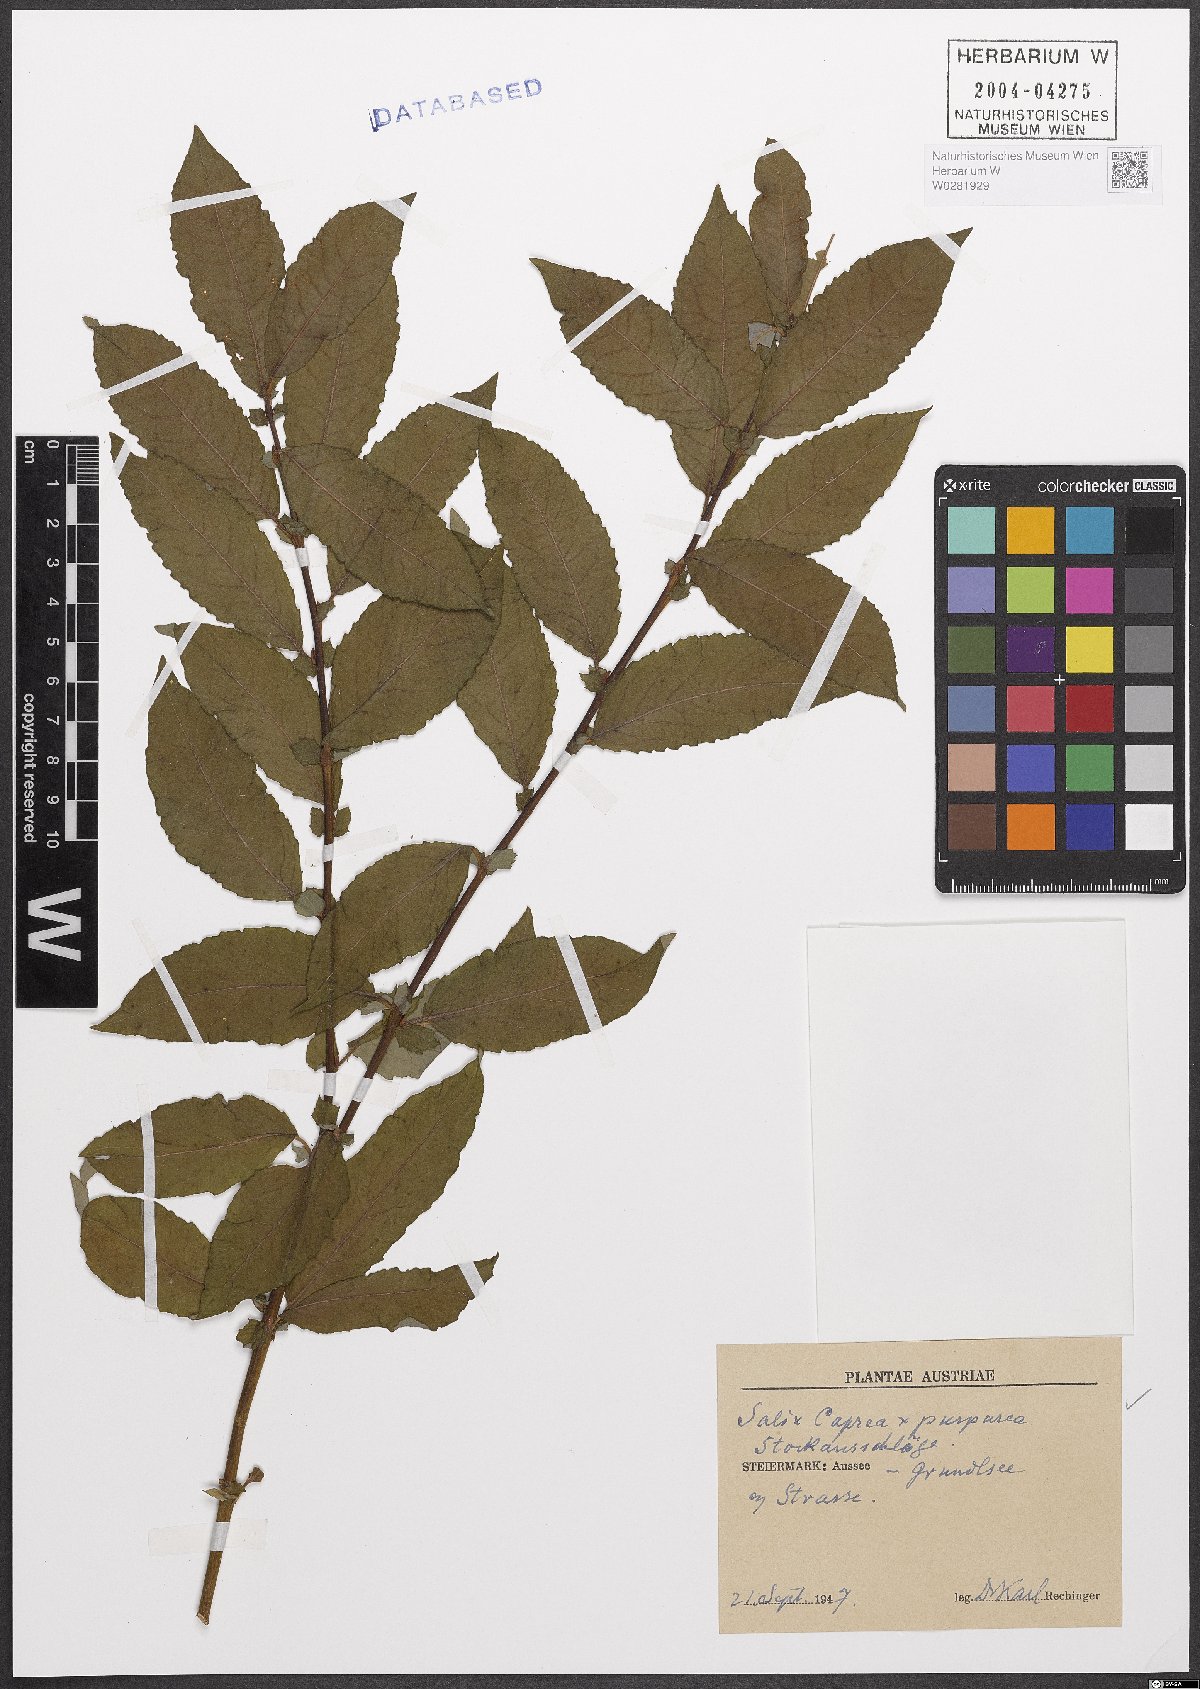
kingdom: Plantae
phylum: Tracheophyta
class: Magnoliopsida
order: Malpighiales
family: Salicaceae
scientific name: Salicaceae
